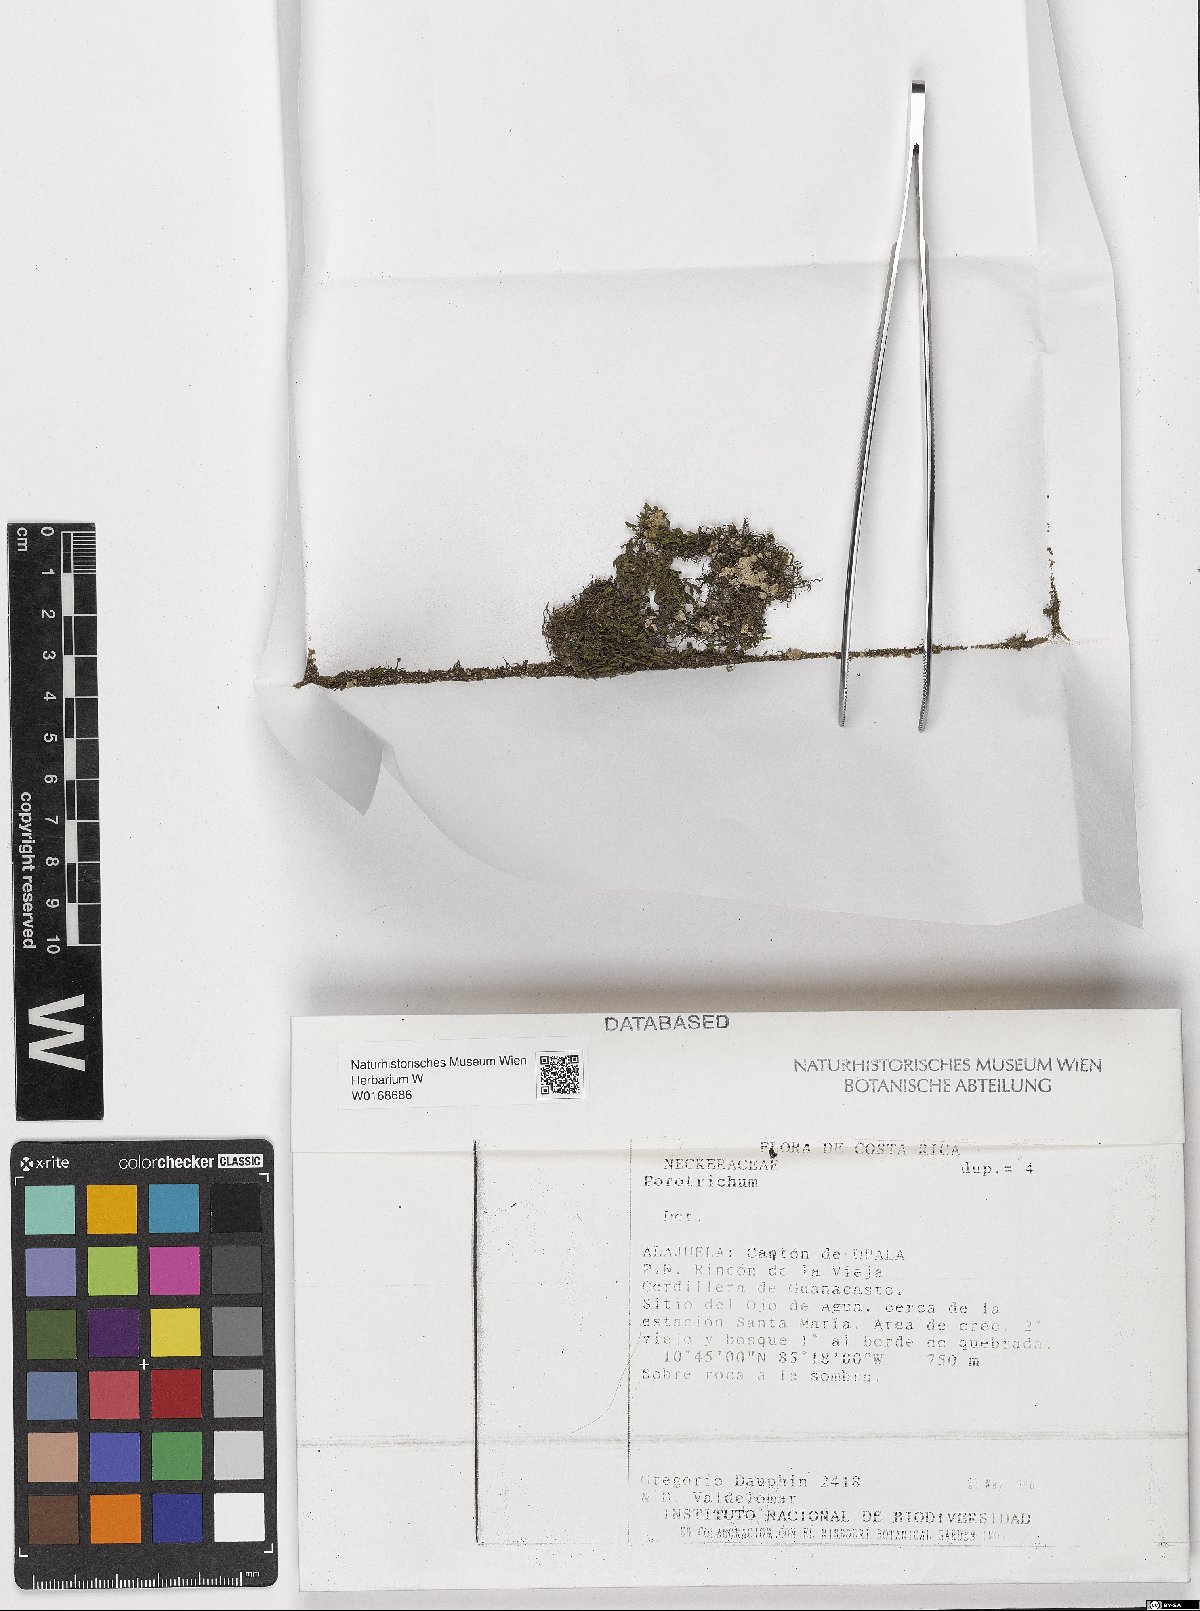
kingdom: Plantae
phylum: Bryophyta
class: Bryopsida
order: Hypnales
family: Neckeraceae
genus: Porotrichum
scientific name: Porotrichum
